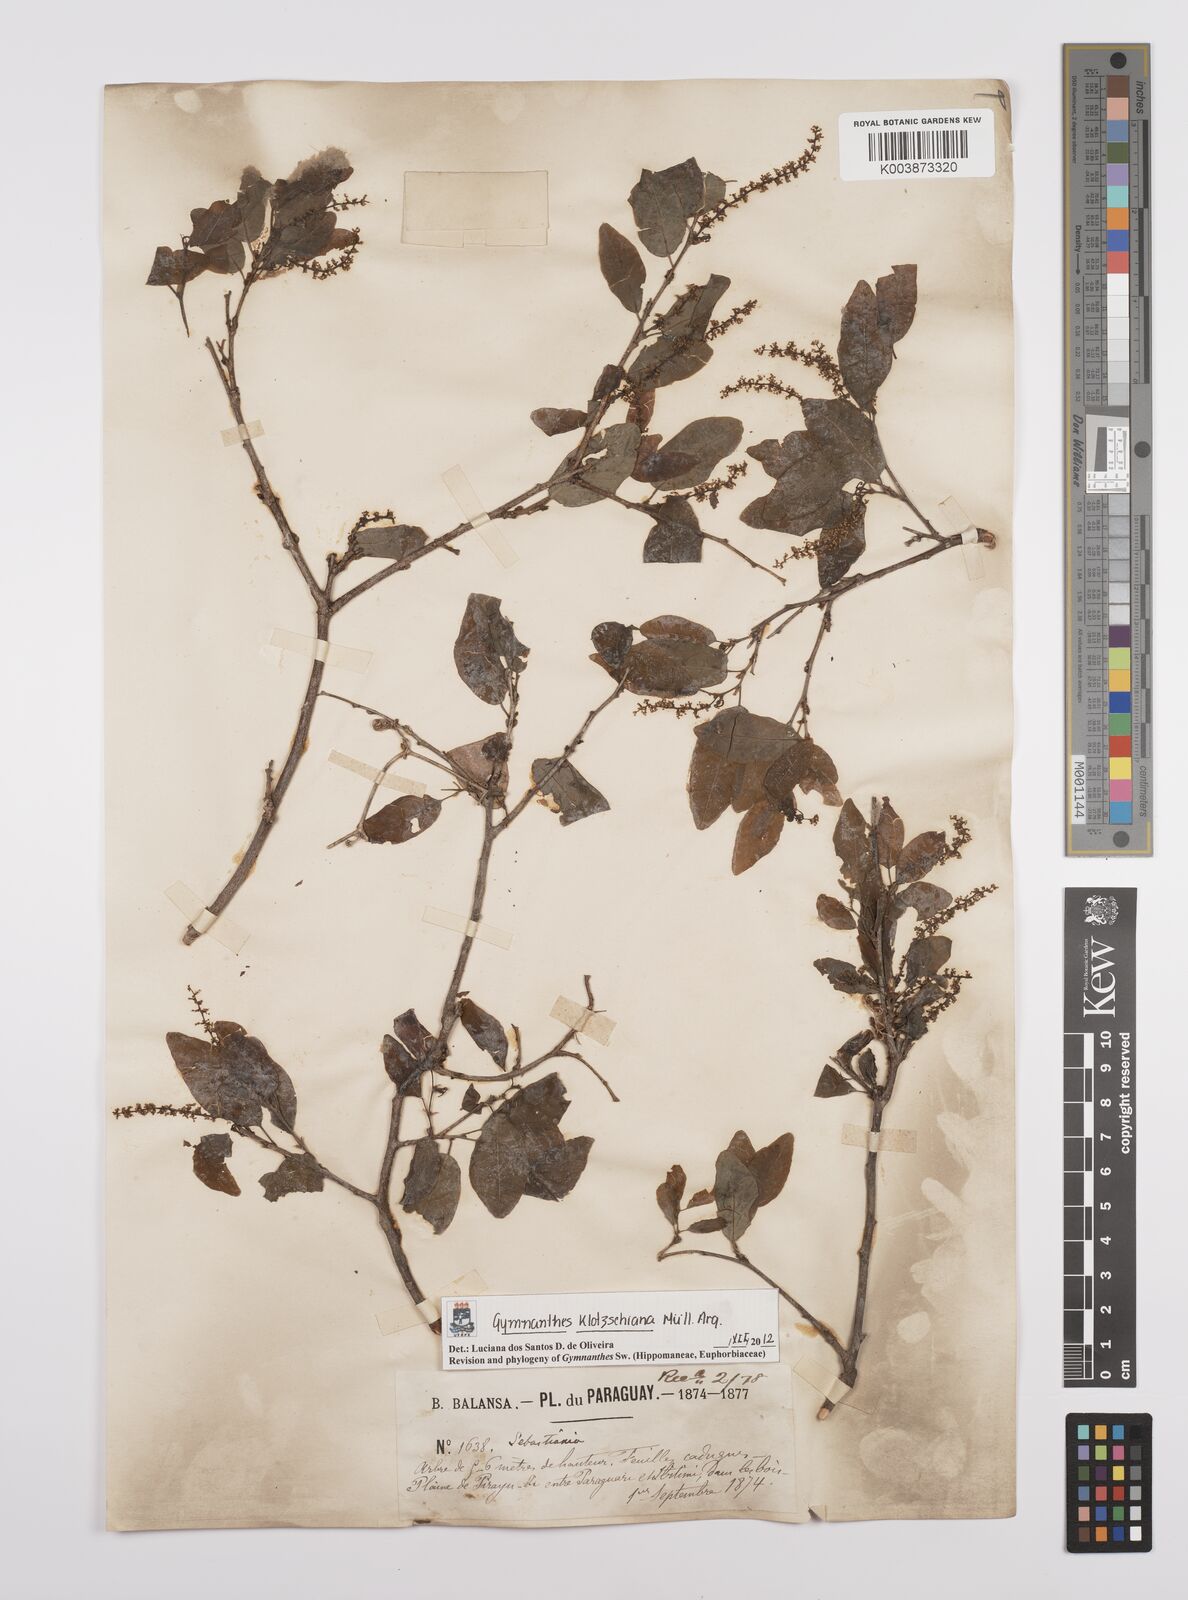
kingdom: Plantae
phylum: Tracheophyta
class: Magnoliopsida
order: Malpighiales
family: Euphorbiaceae
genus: Sebastiania
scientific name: Sebastiania klotzschiana
